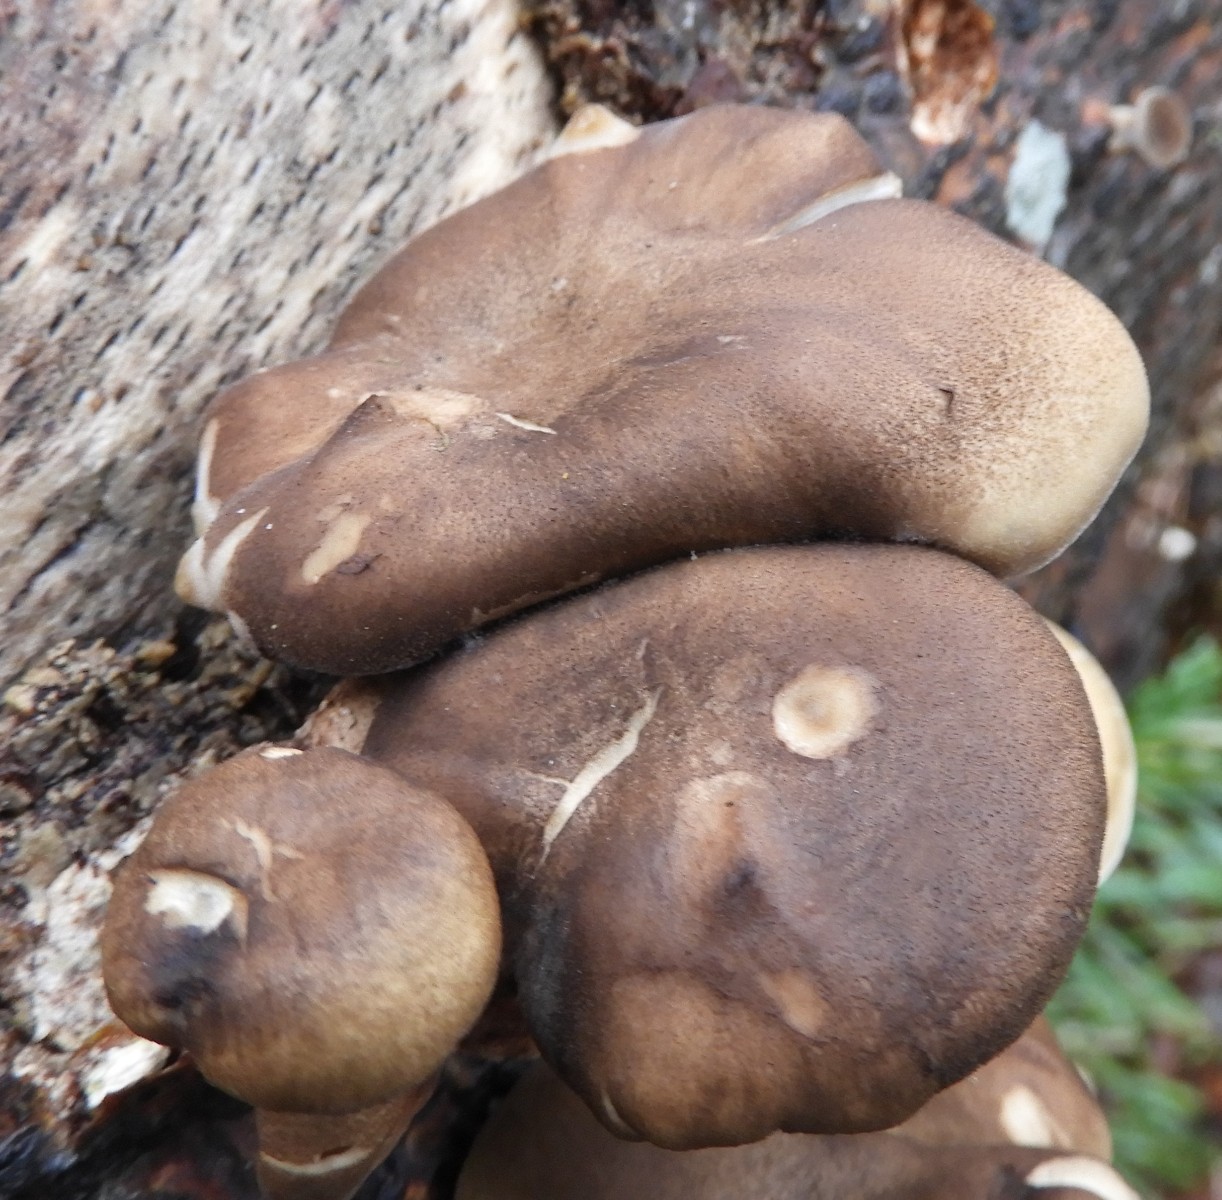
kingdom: Fungi
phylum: Basidiomycota
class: Agaricomycetes
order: Polyporales
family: Polyporaceae
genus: Lentinus
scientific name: Lentinus brumalis
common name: vinter-stilkporesvamp
